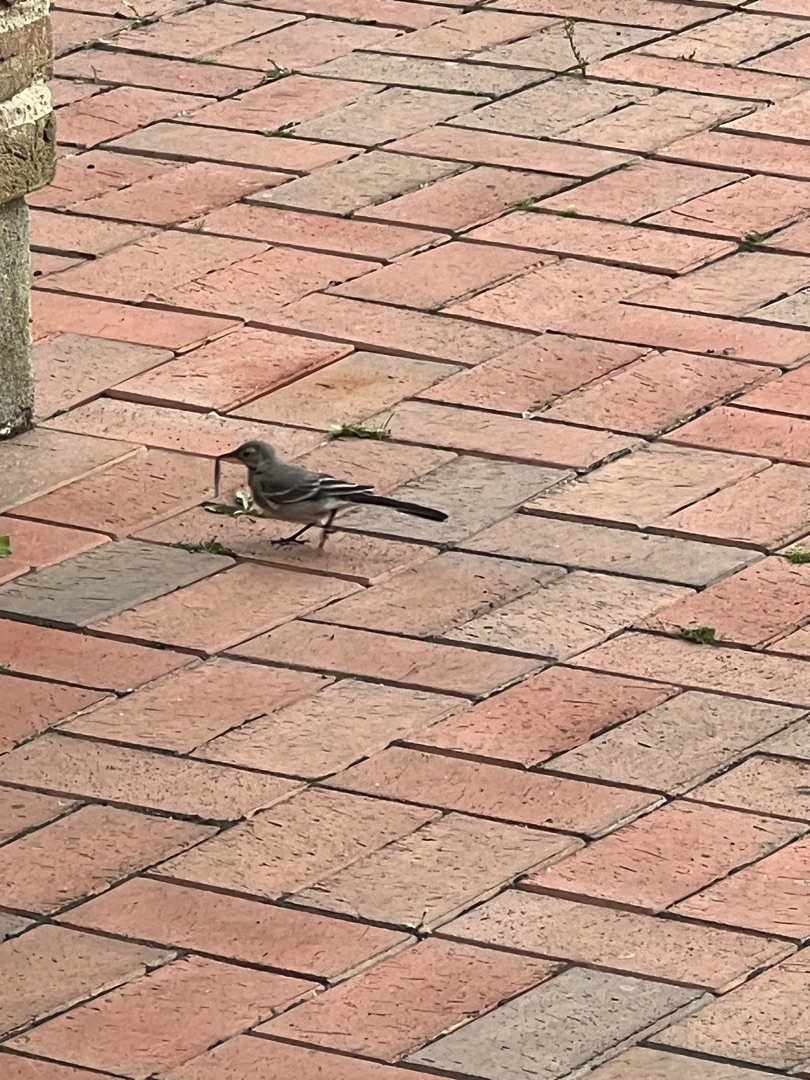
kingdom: Animalia
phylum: Chordata
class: Aves
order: Passeriformes
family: Motacillidae
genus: Motacilla
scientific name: Motacilla alba
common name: Hvid vipstjert
